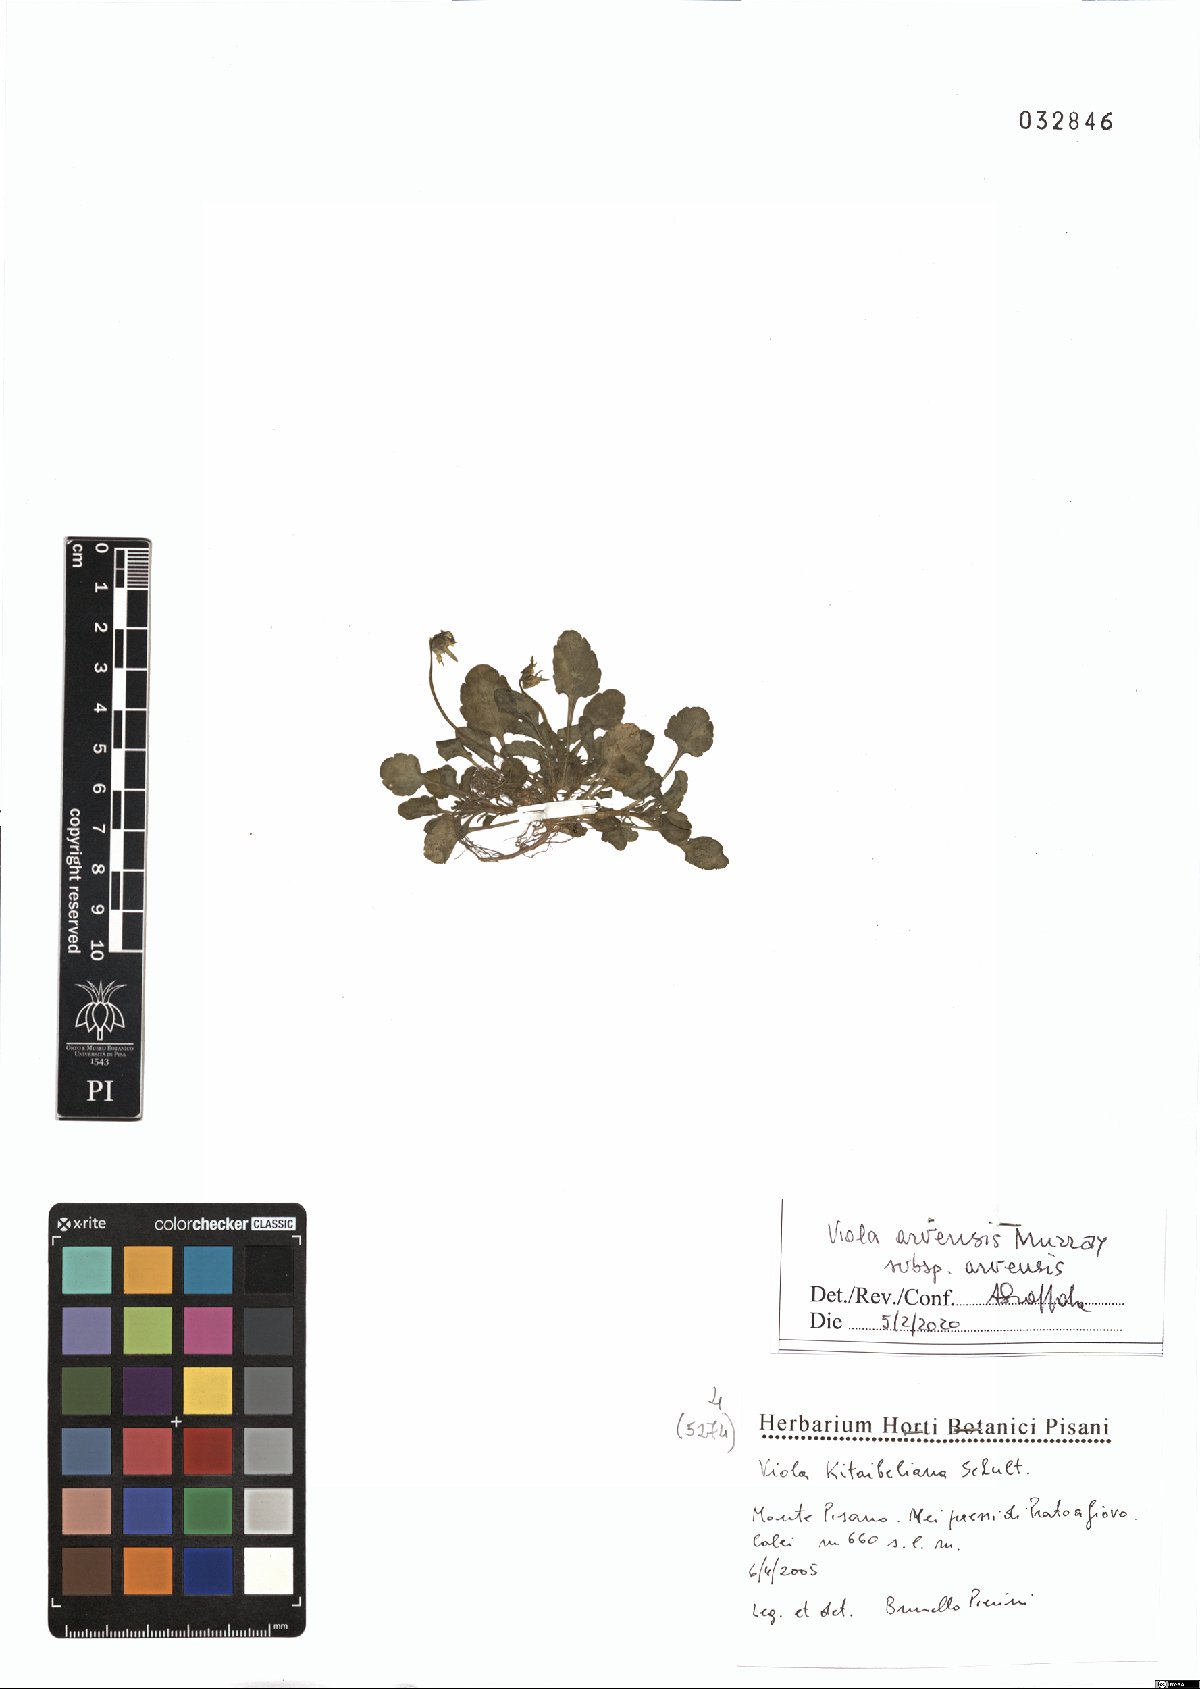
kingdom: Plantae
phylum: Tracheophyta
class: Magnoliopsida
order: Malpighiales
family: Violaceae
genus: Viola
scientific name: Viola arvensis
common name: Field pansy
